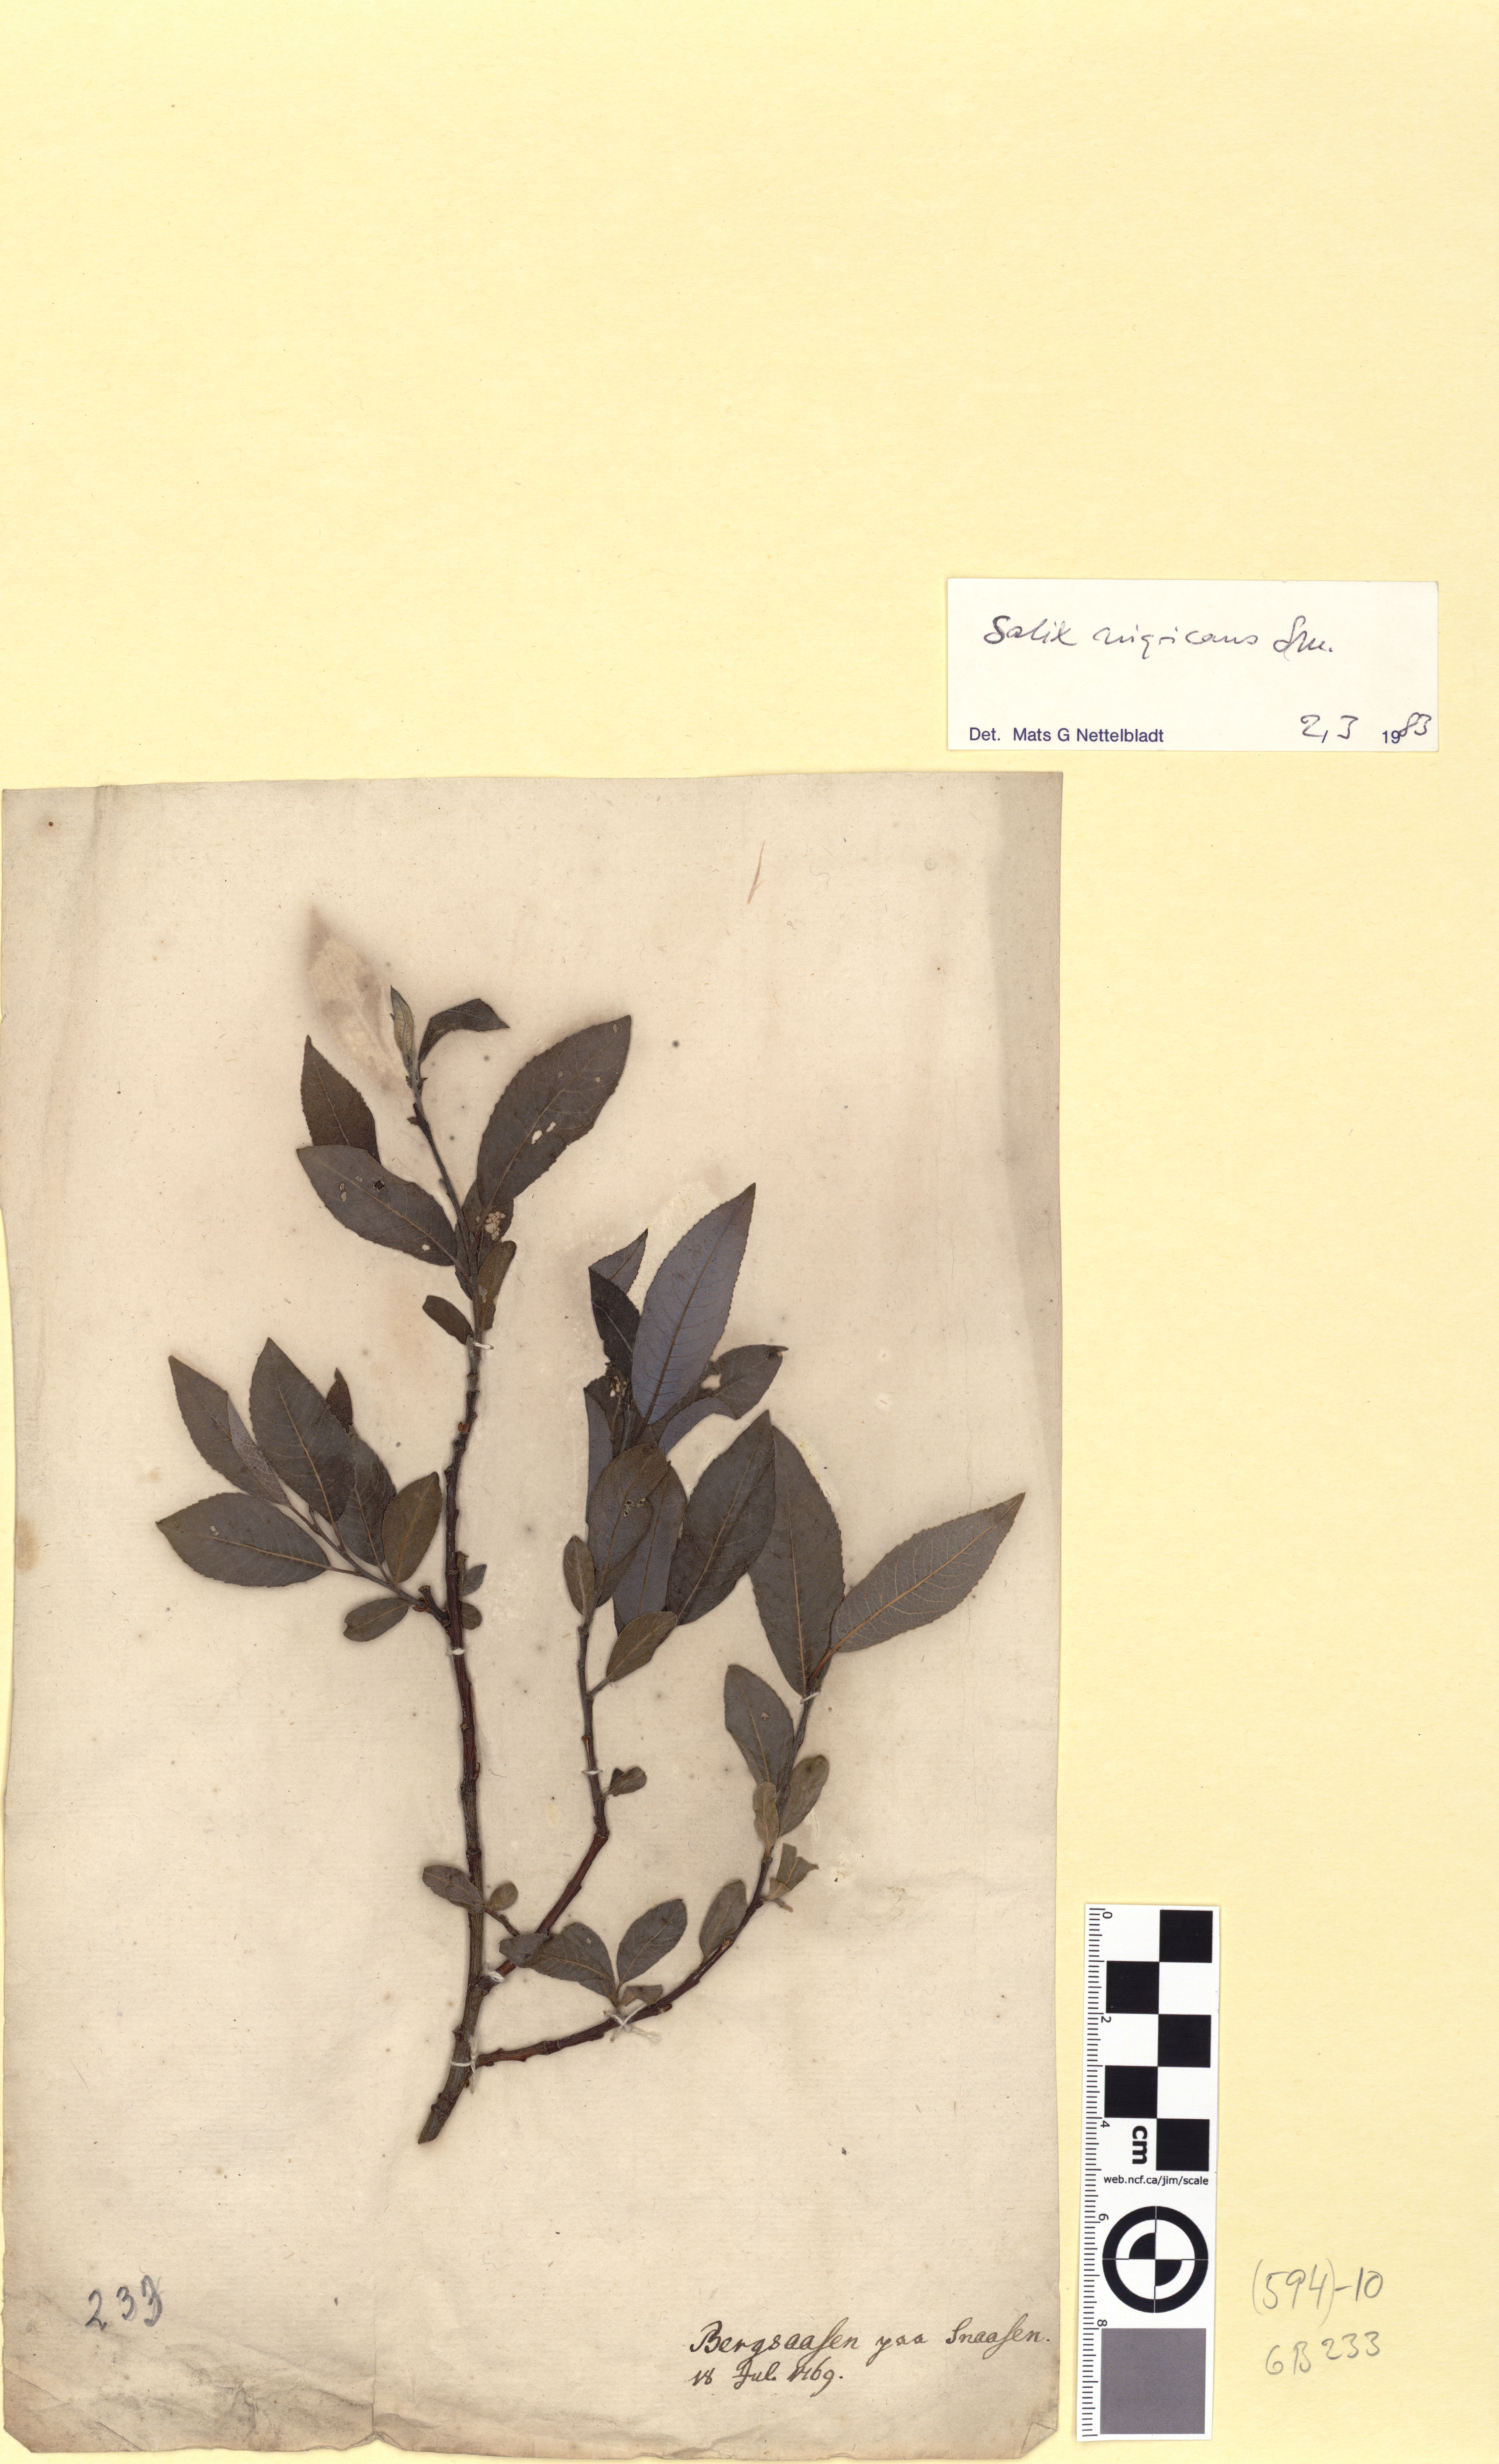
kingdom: Plantae
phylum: Tracheophyta
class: Magnoliopsida
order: Malpighiales
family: Salicaceae
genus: Salix
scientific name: Salix myrsinifolia
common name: Dark-leaved willow
